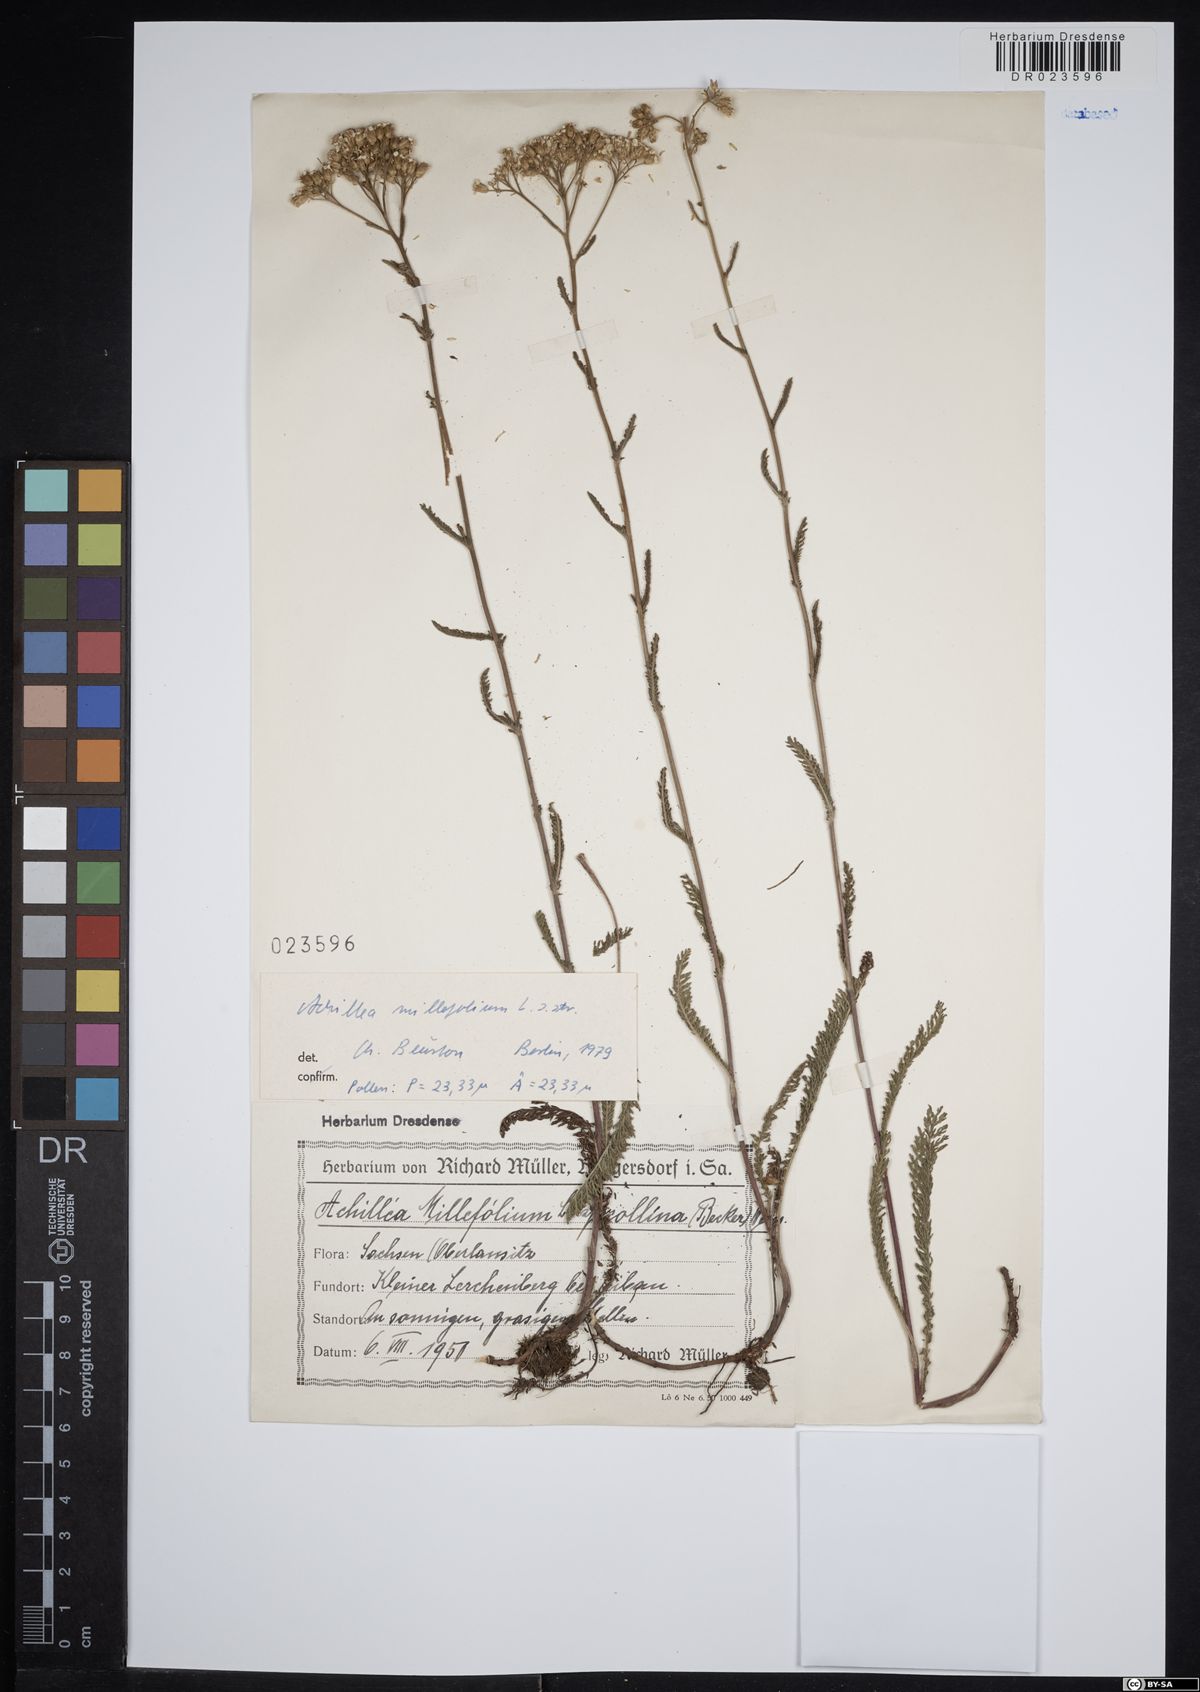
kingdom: Plantae
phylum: Tracheophyta
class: Magnoliopsida
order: Asterales
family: Asteraceae
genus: Achillea
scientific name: Achillea millefolium
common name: Yarrow
